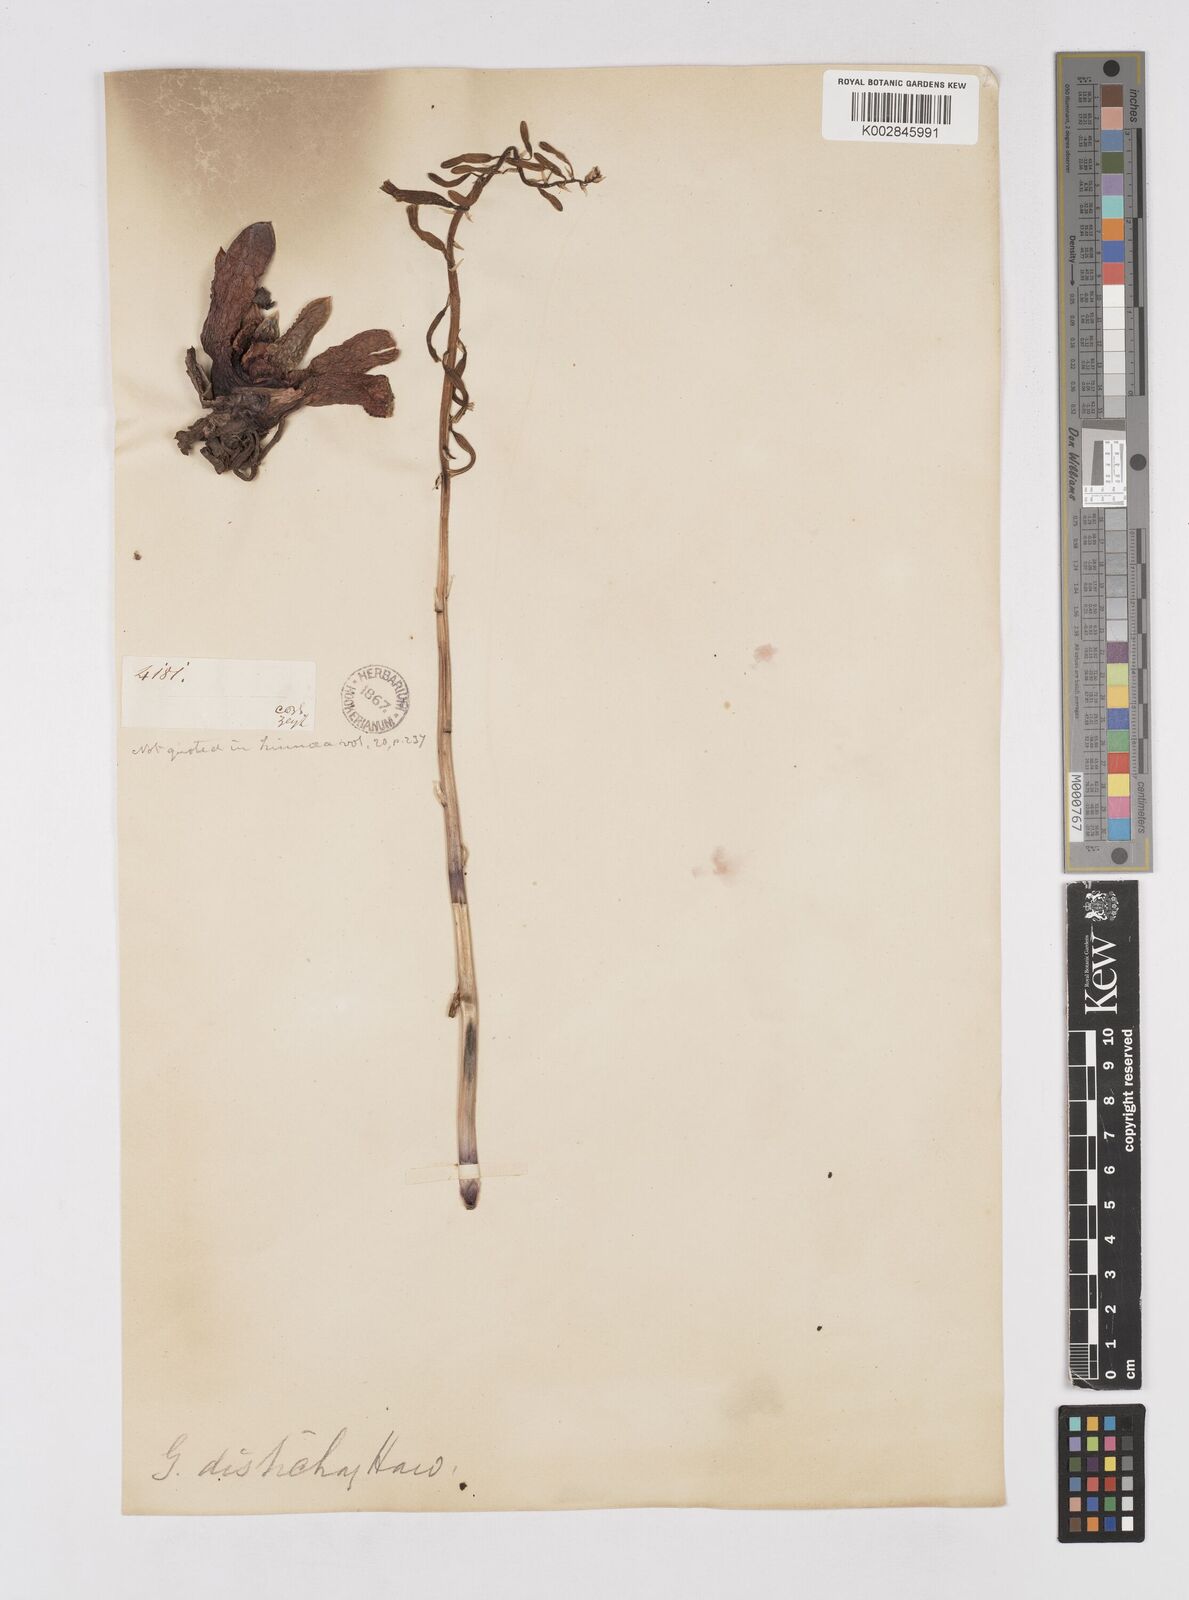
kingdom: Plantae
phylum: Tracheophyta
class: Liliopsida
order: Asparagales
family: Asphodelaceae
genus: Gasteria
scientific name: Gasteria lingua
